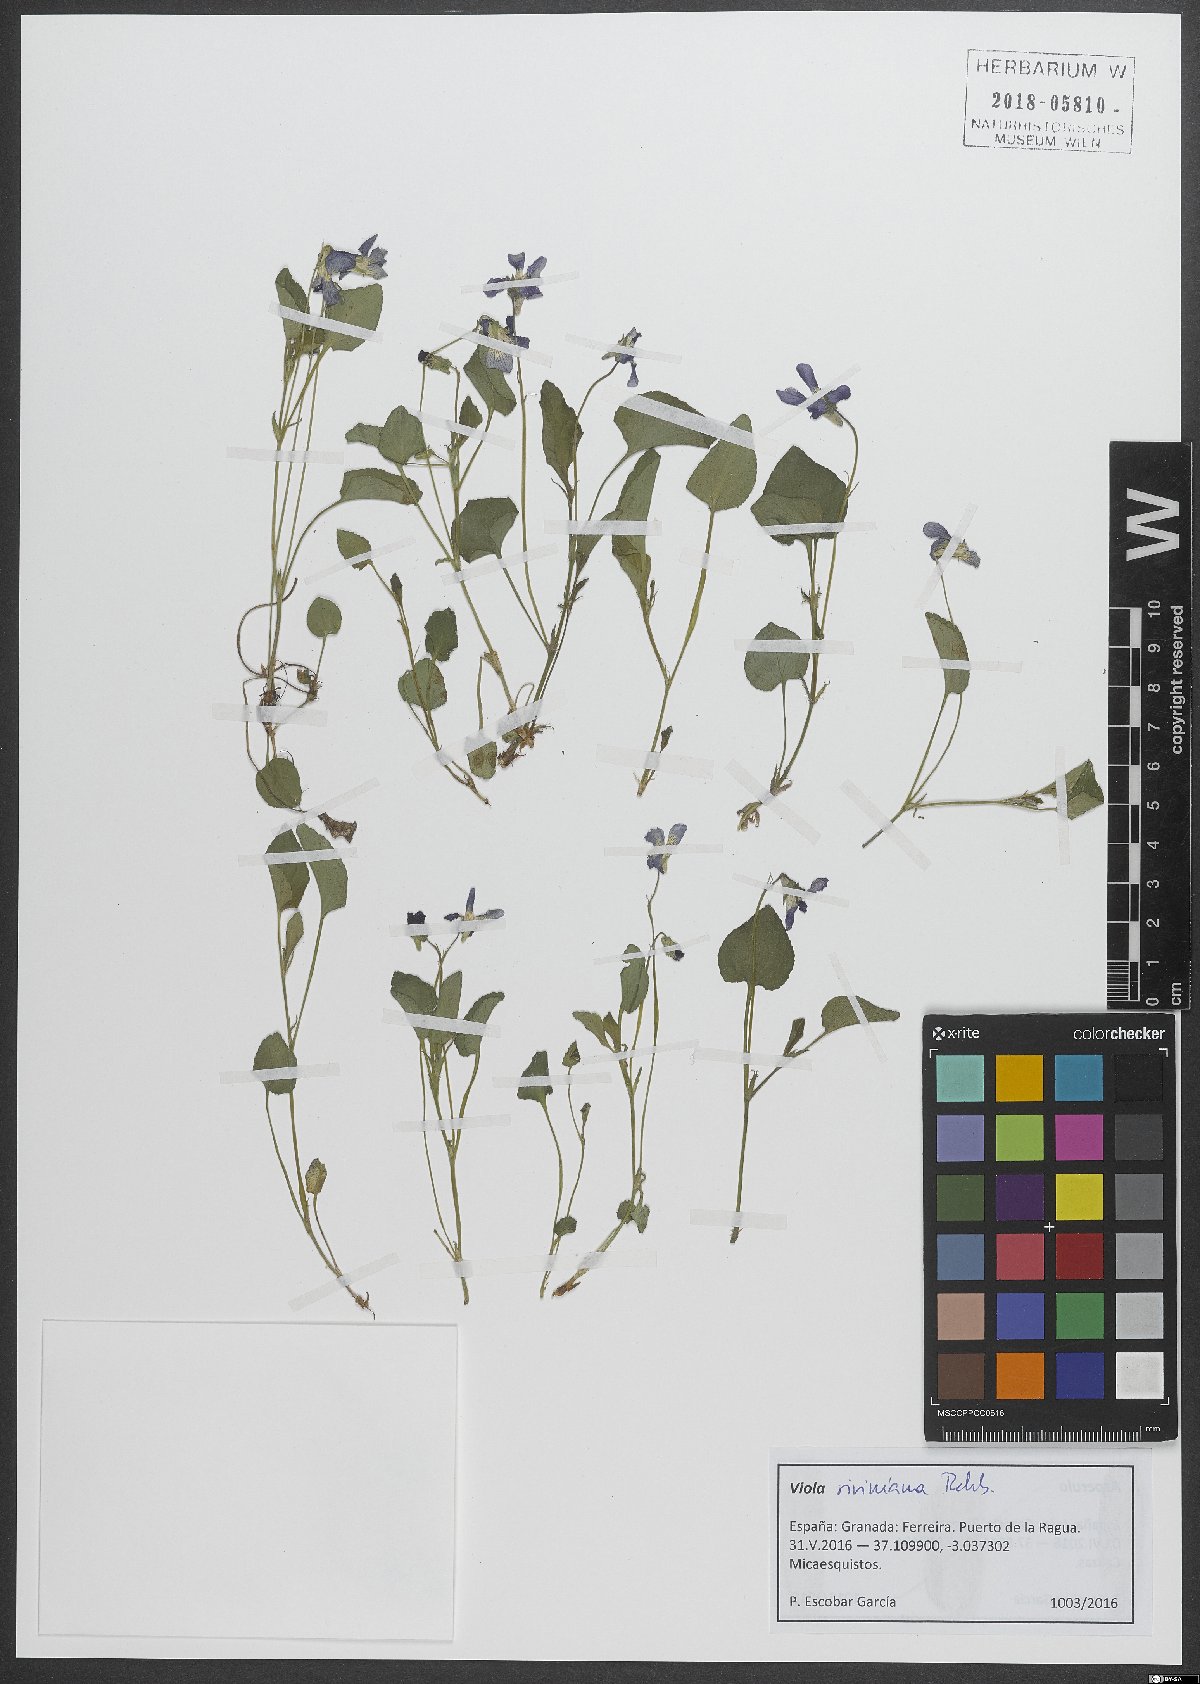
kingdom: Plantae
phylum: Tracheophyta
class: Magnoliopsida
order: Malpighiales
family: Violaceae
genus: Viola
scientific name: Viola riviniana
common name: Common dog-violet
